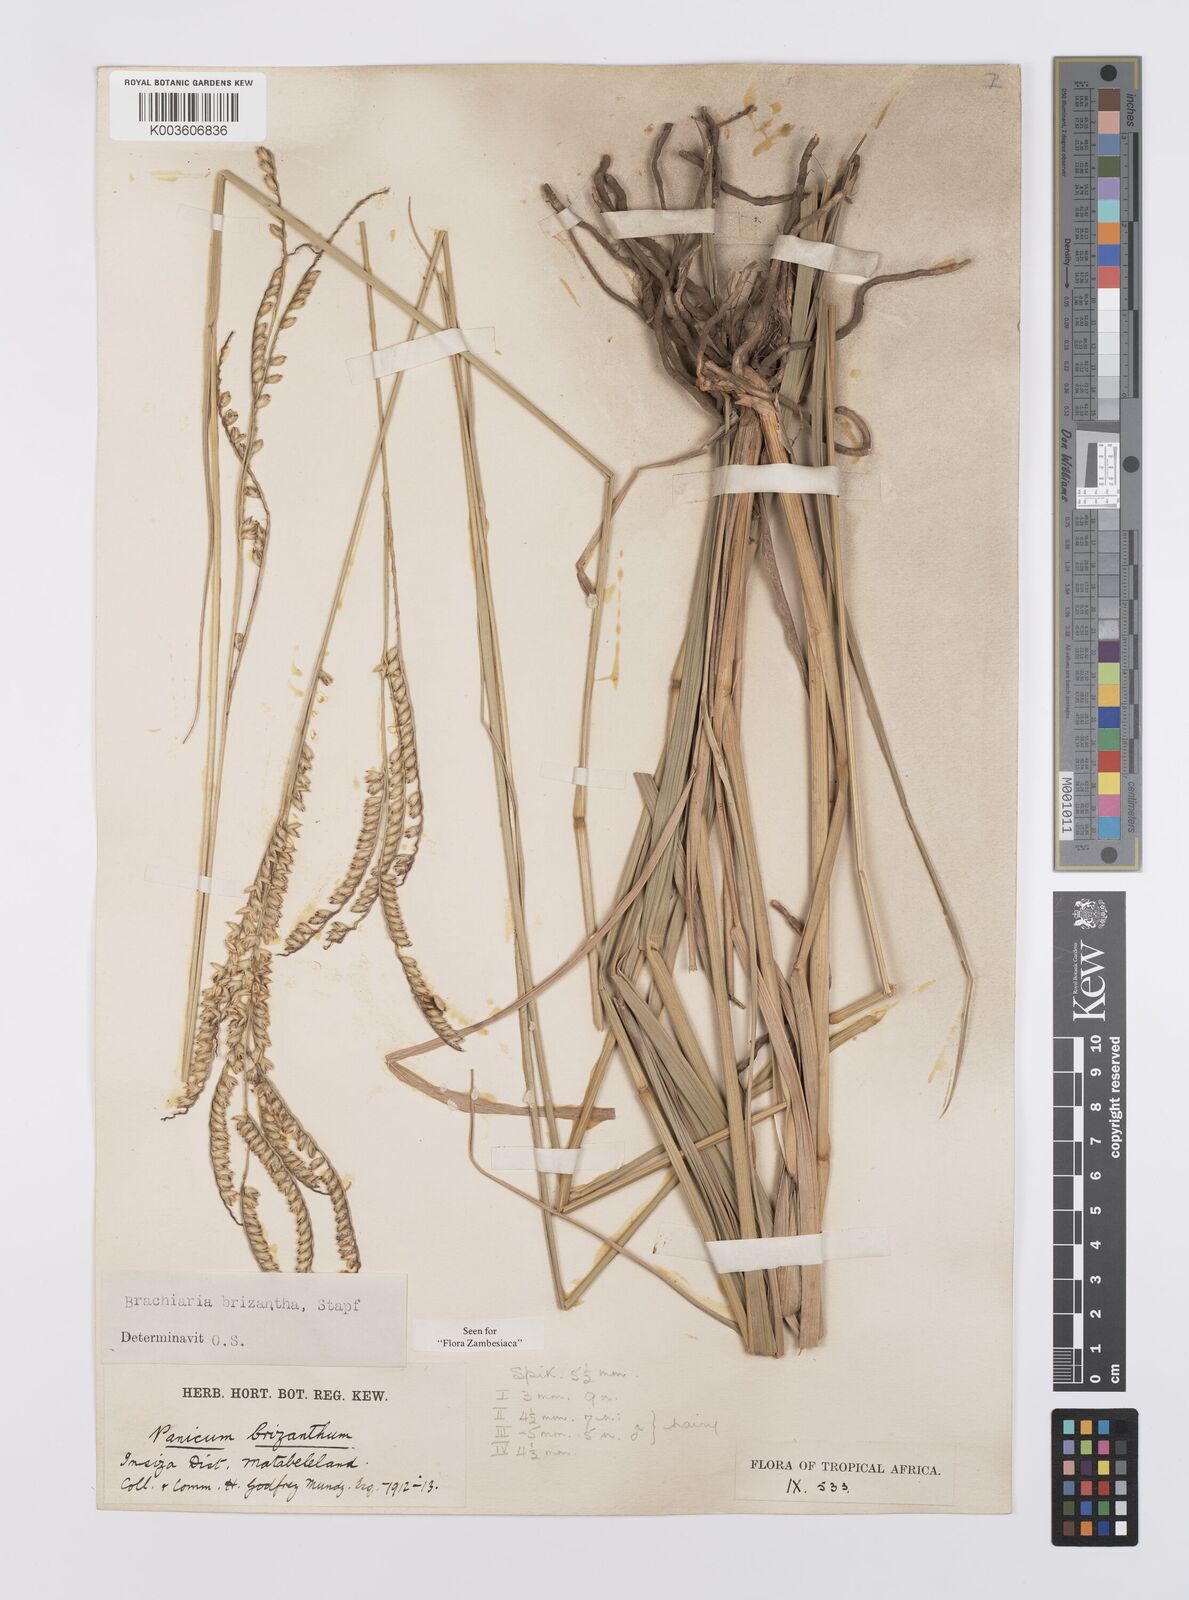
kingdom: Plantae
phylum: Tracheophyta
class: Liliopsida
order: Poales
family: Poaceae
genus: Urochloa
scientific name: Urochloa brizantha
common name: Palisade signalgrass
